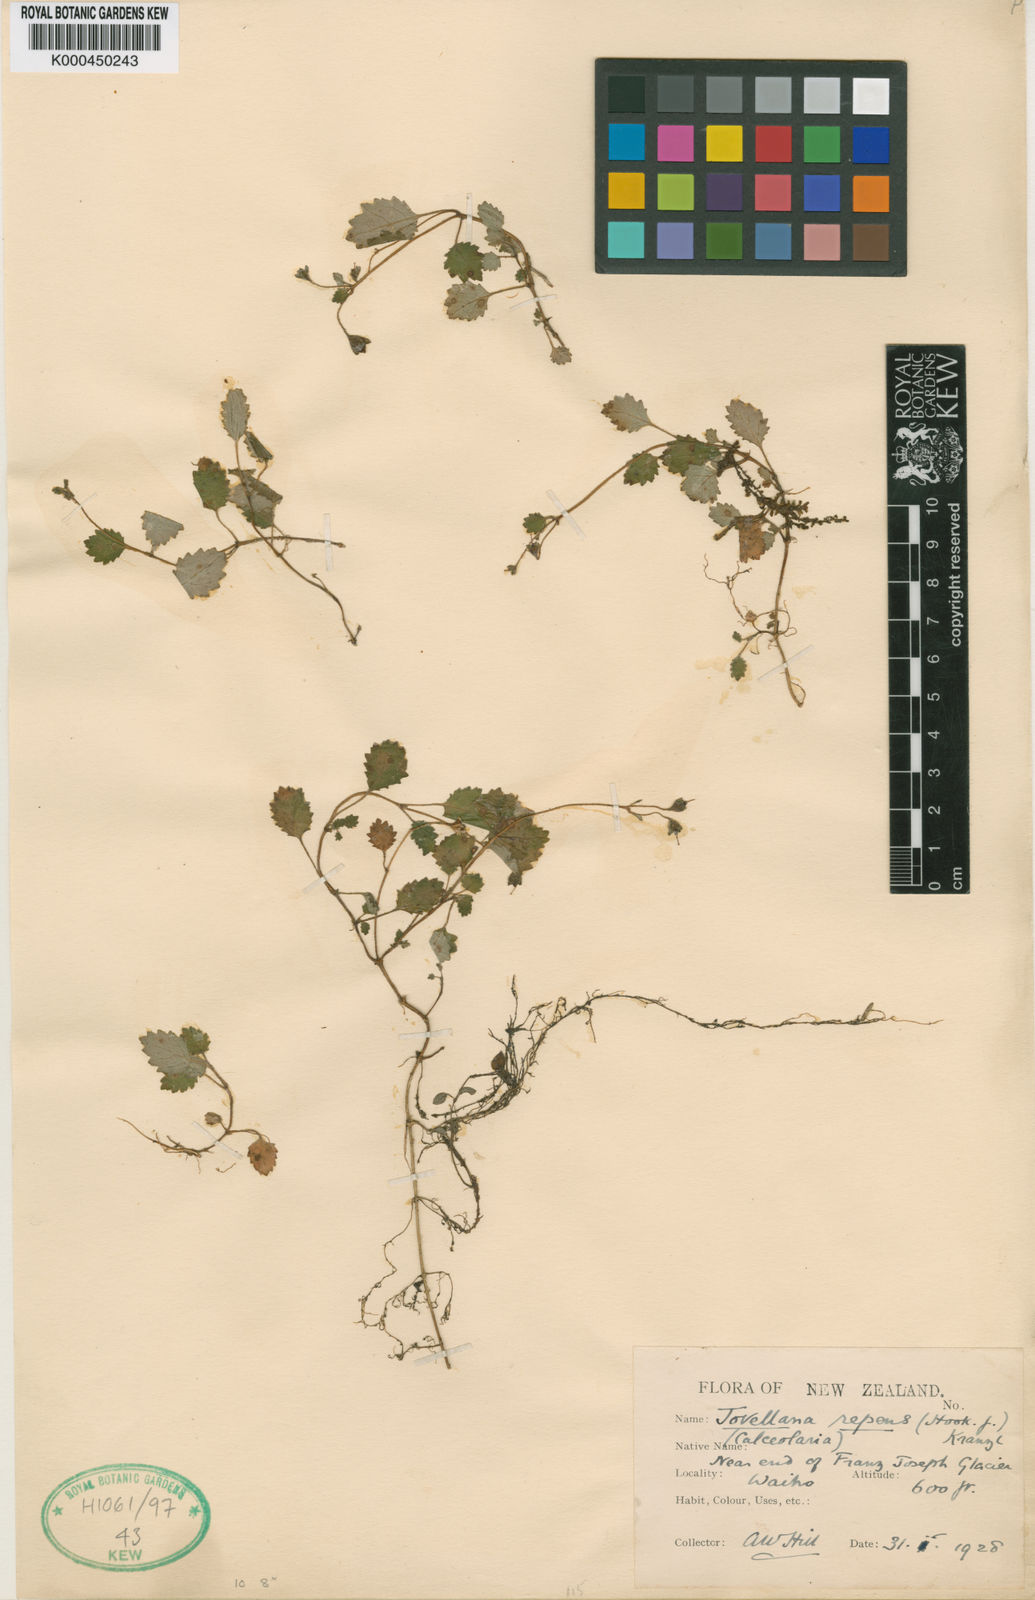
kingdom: Plantae
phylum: Tracheophyta
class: Magnoliopsida
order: Lamiales
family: Calceolariaceae
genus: Jovellana
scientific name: Jovellana repens
